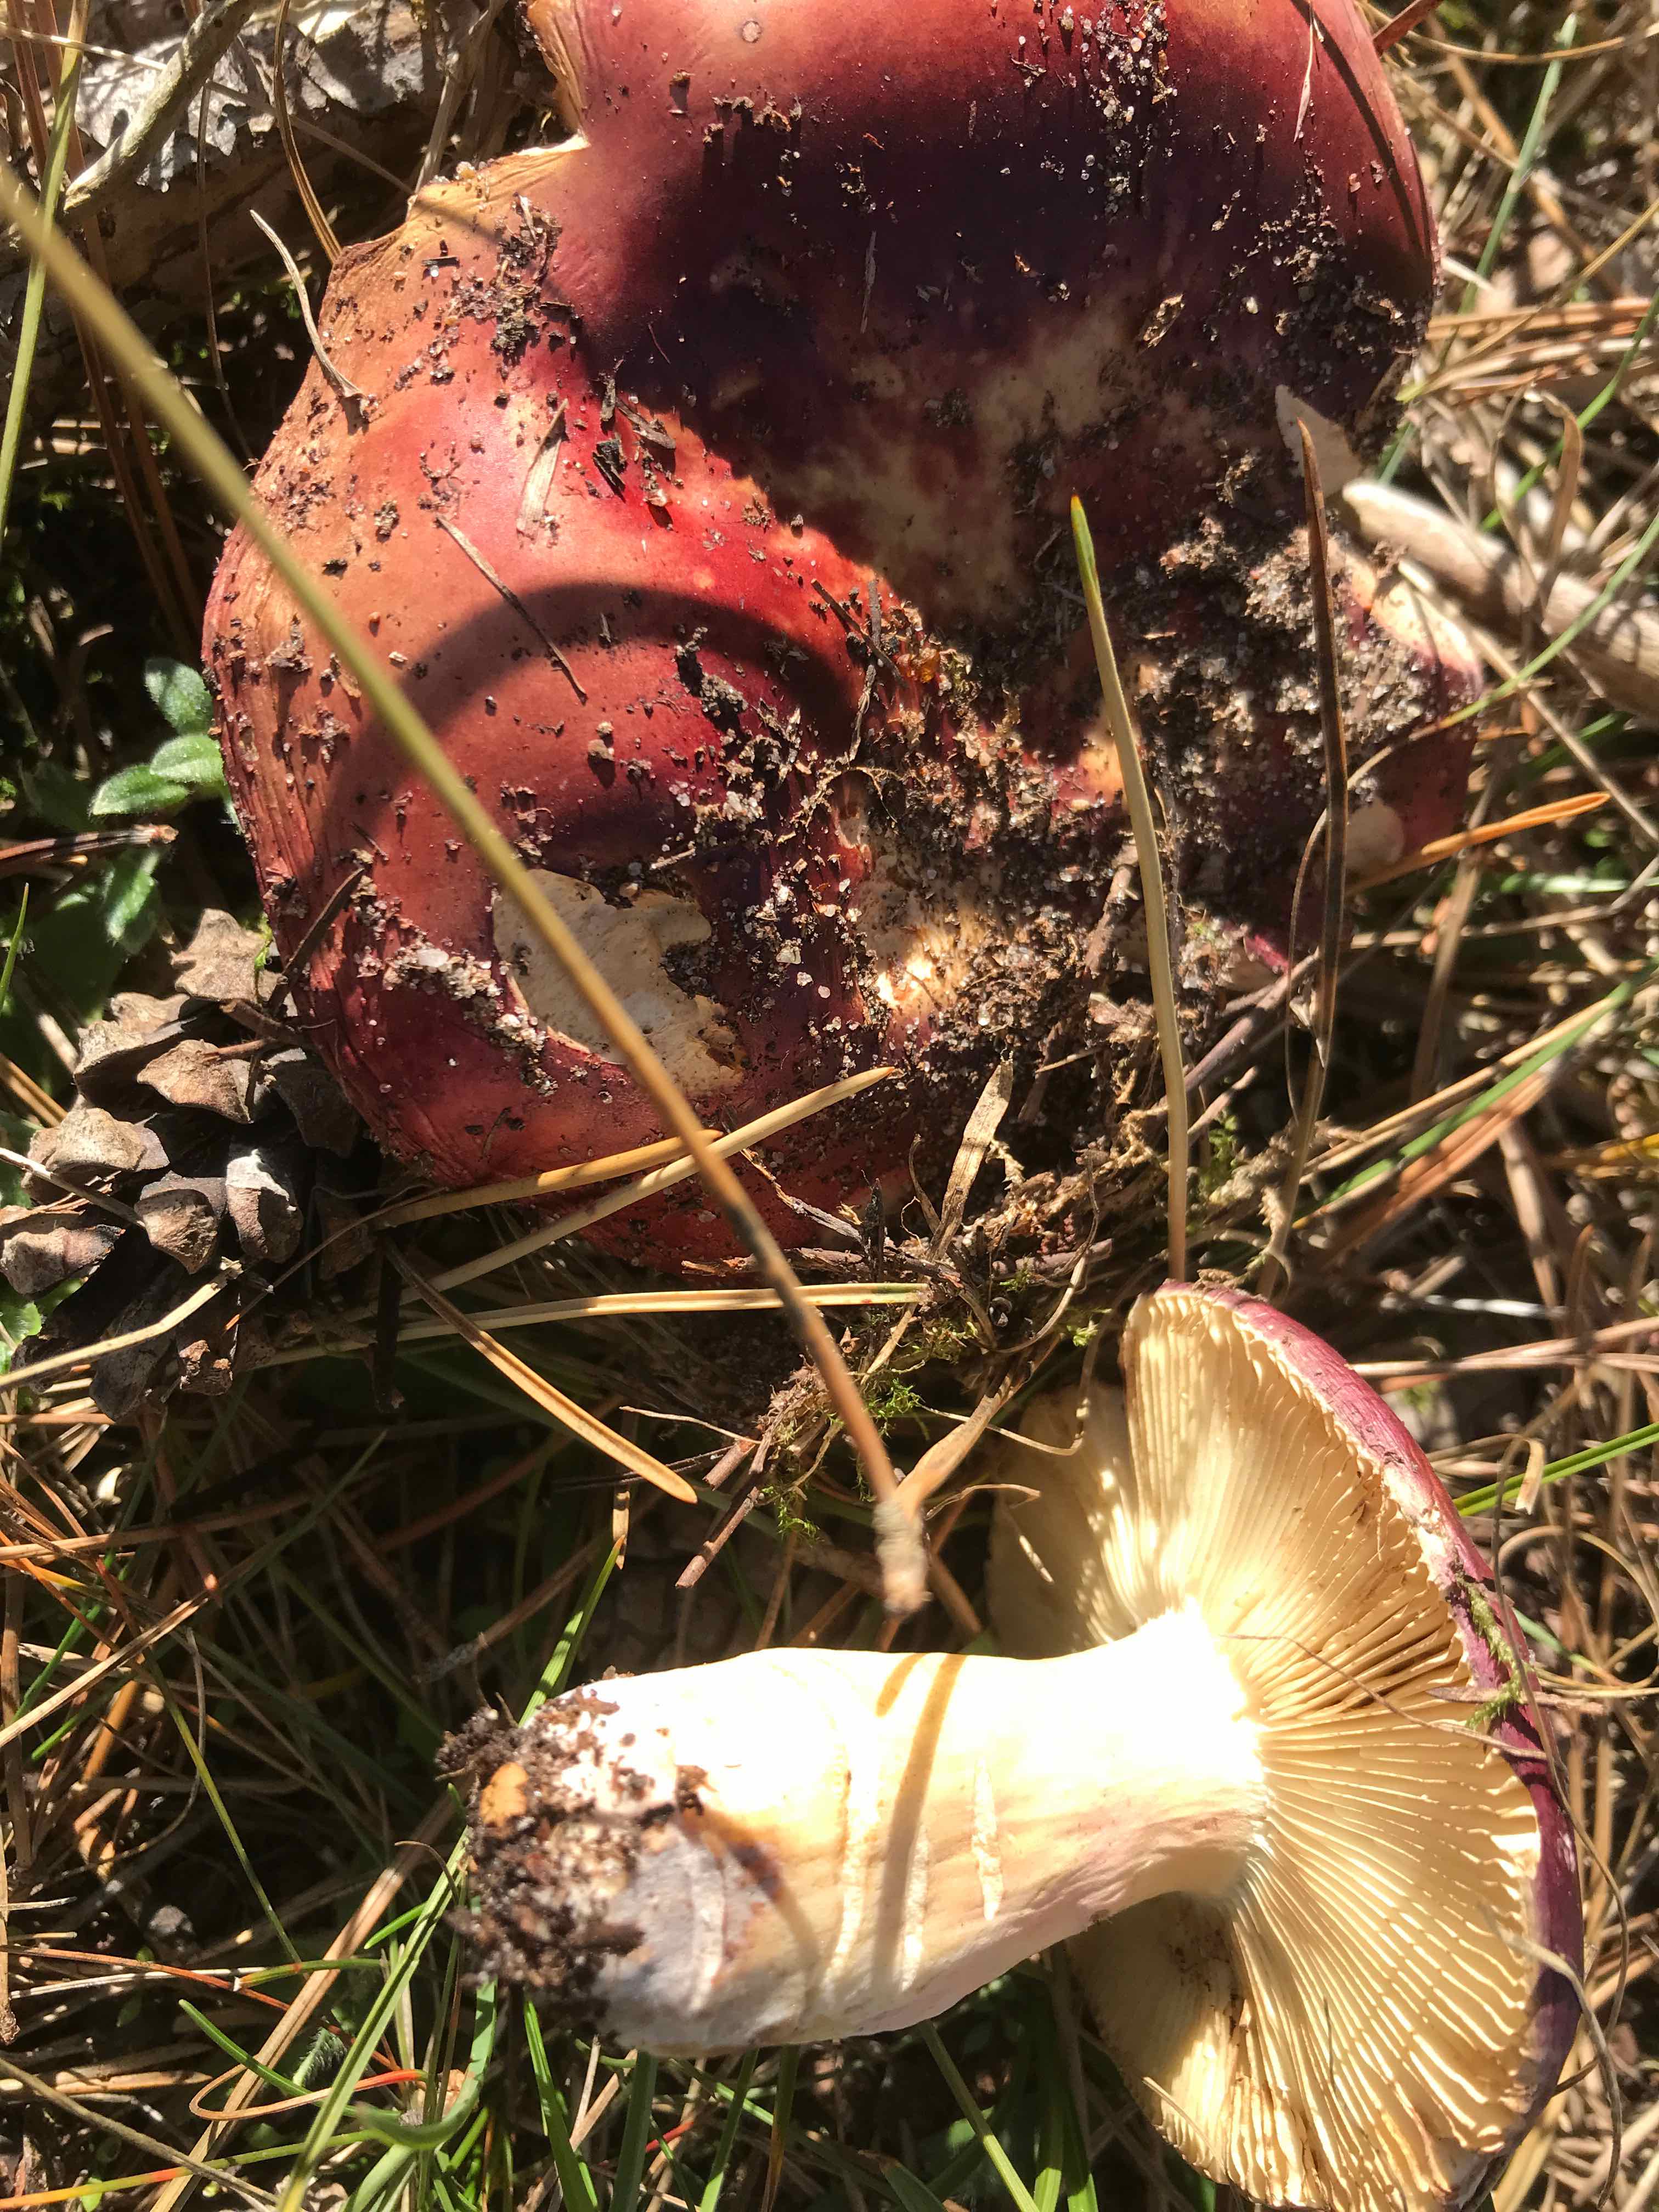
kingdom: Fungi
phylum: Basidiomycota
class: Agaricomycetes
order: Russulales
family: Russulaceae
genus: Russula
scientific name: Russula xerampelina
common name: hummer-skørhat
